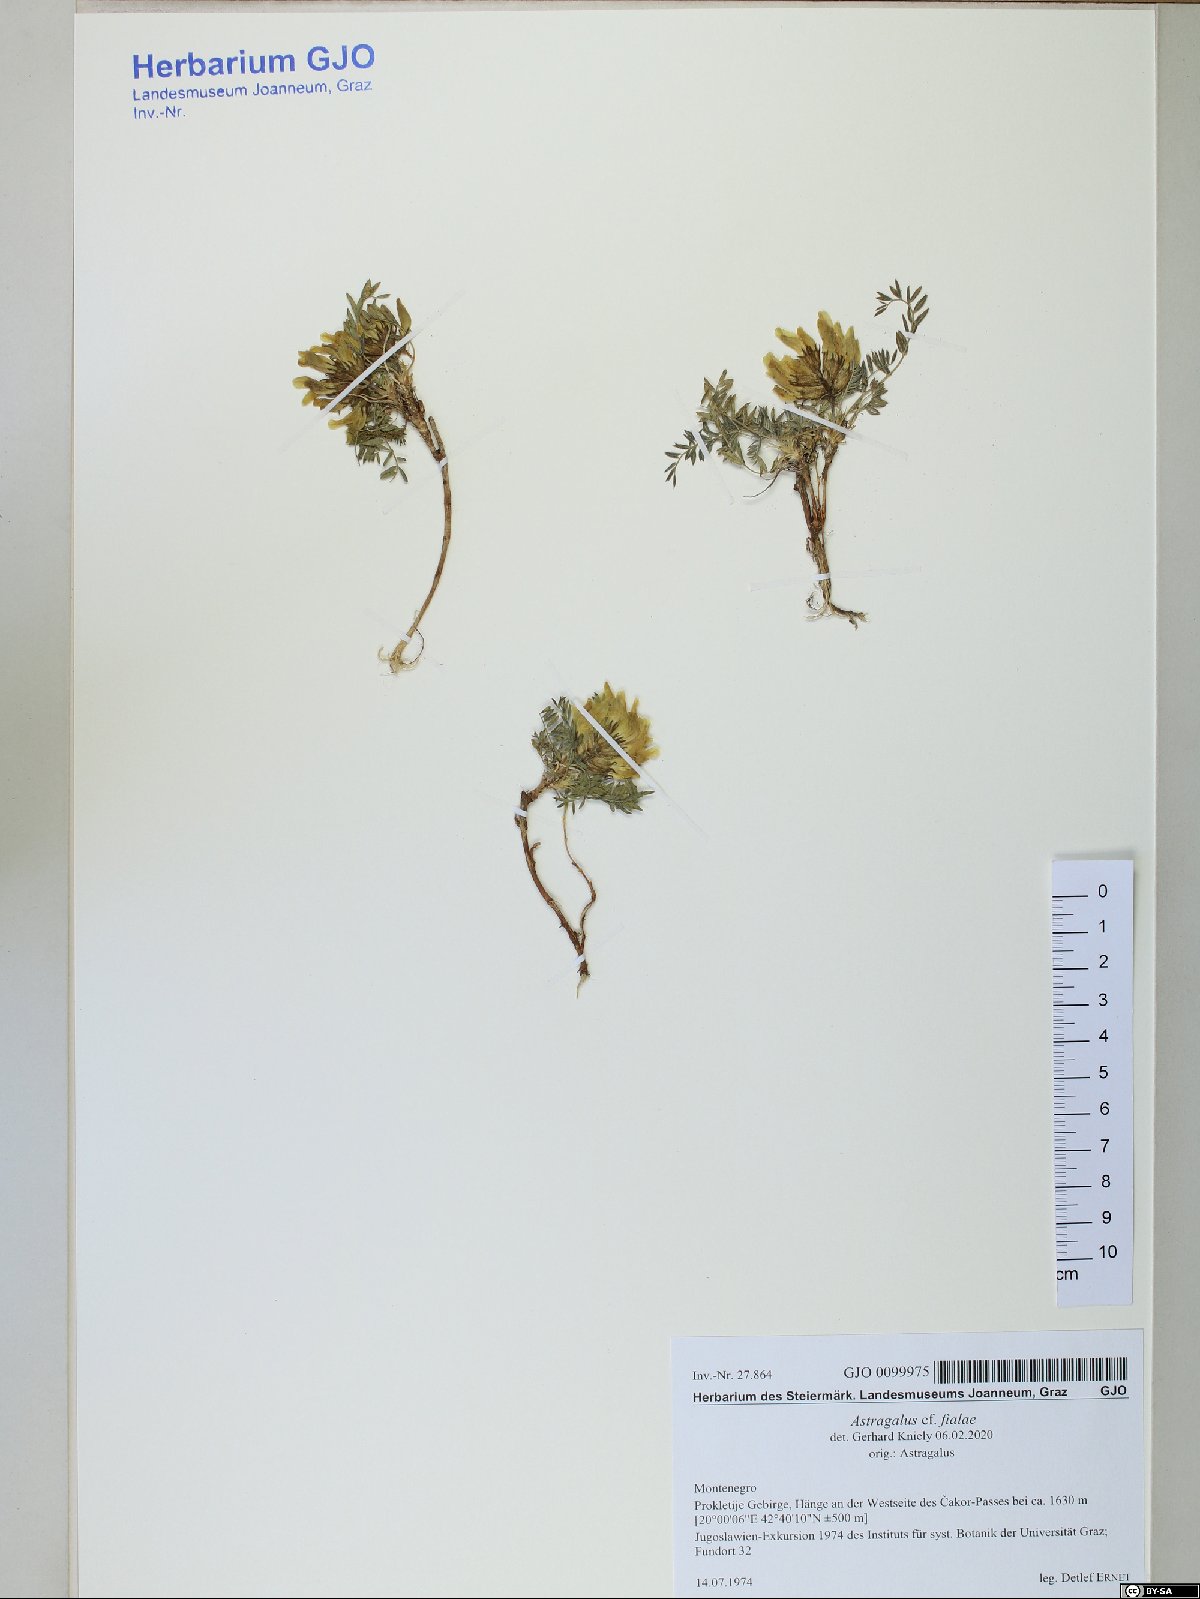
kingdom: Plantae
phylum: Tracheophyta
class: Magnoliopsida
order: Fabales
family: Fabaceae
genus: Astragalus
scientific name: Astragalus fialae
